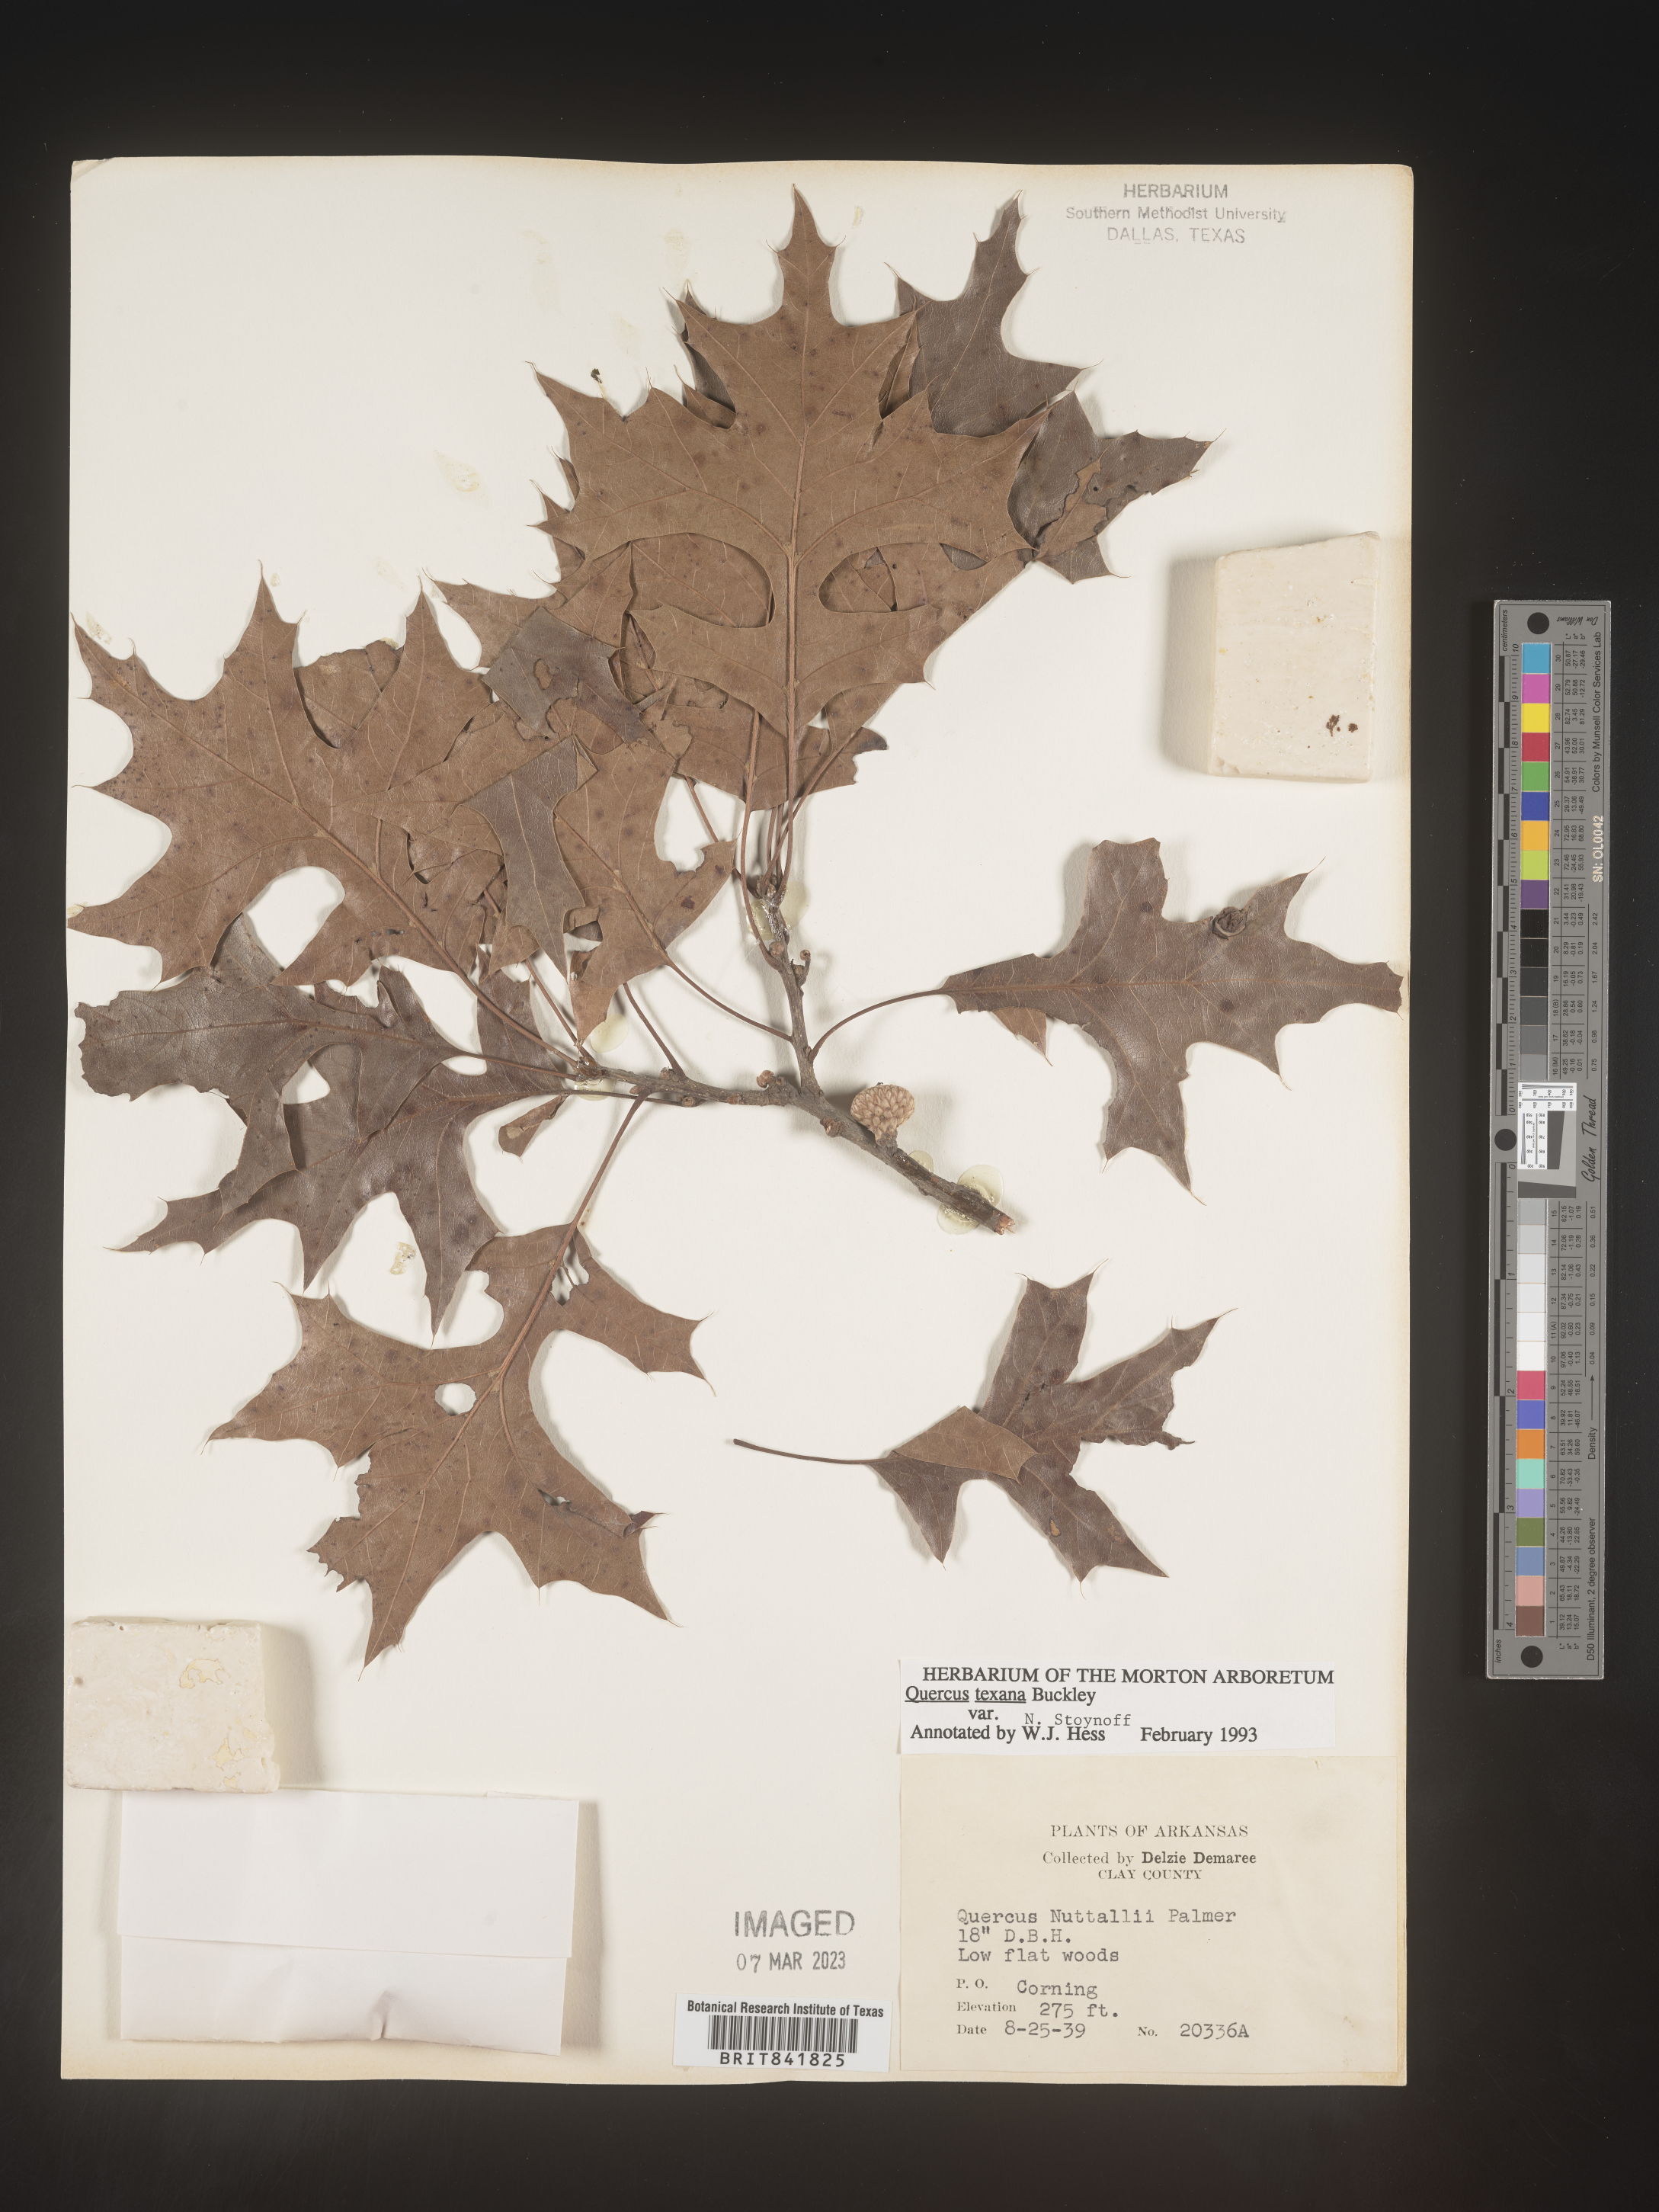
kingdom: Plantae
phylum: Tracheophyta
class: Magnoliopsida
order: Fagales
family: Fagaceae
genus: Quercus
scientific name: Quercus texana
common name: Nuttall oak
